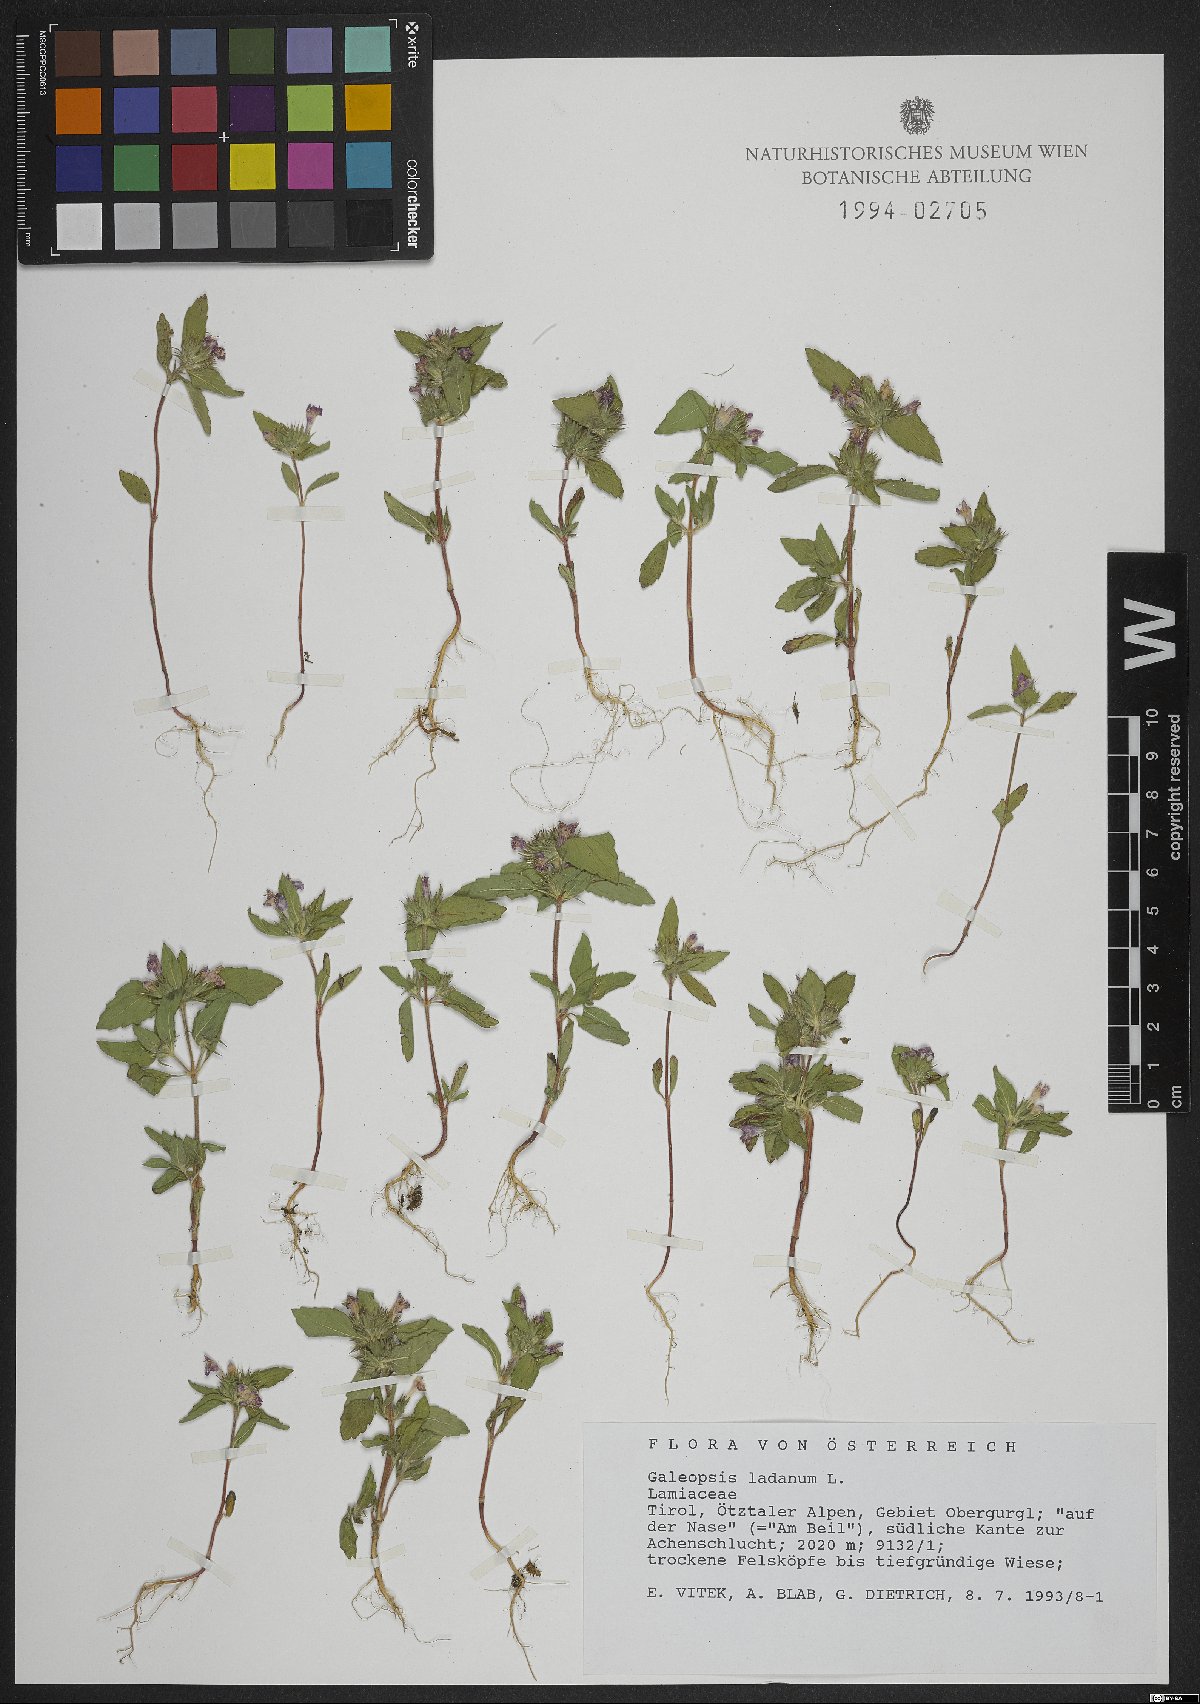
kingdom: Plantae
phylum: Tracheophyta
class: Magnoliopsida
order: Lamiales
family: Lamiaceae
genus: Galeopsis
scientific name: Galeopsis ladanum
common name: Broad-leaved hemp-nettle
